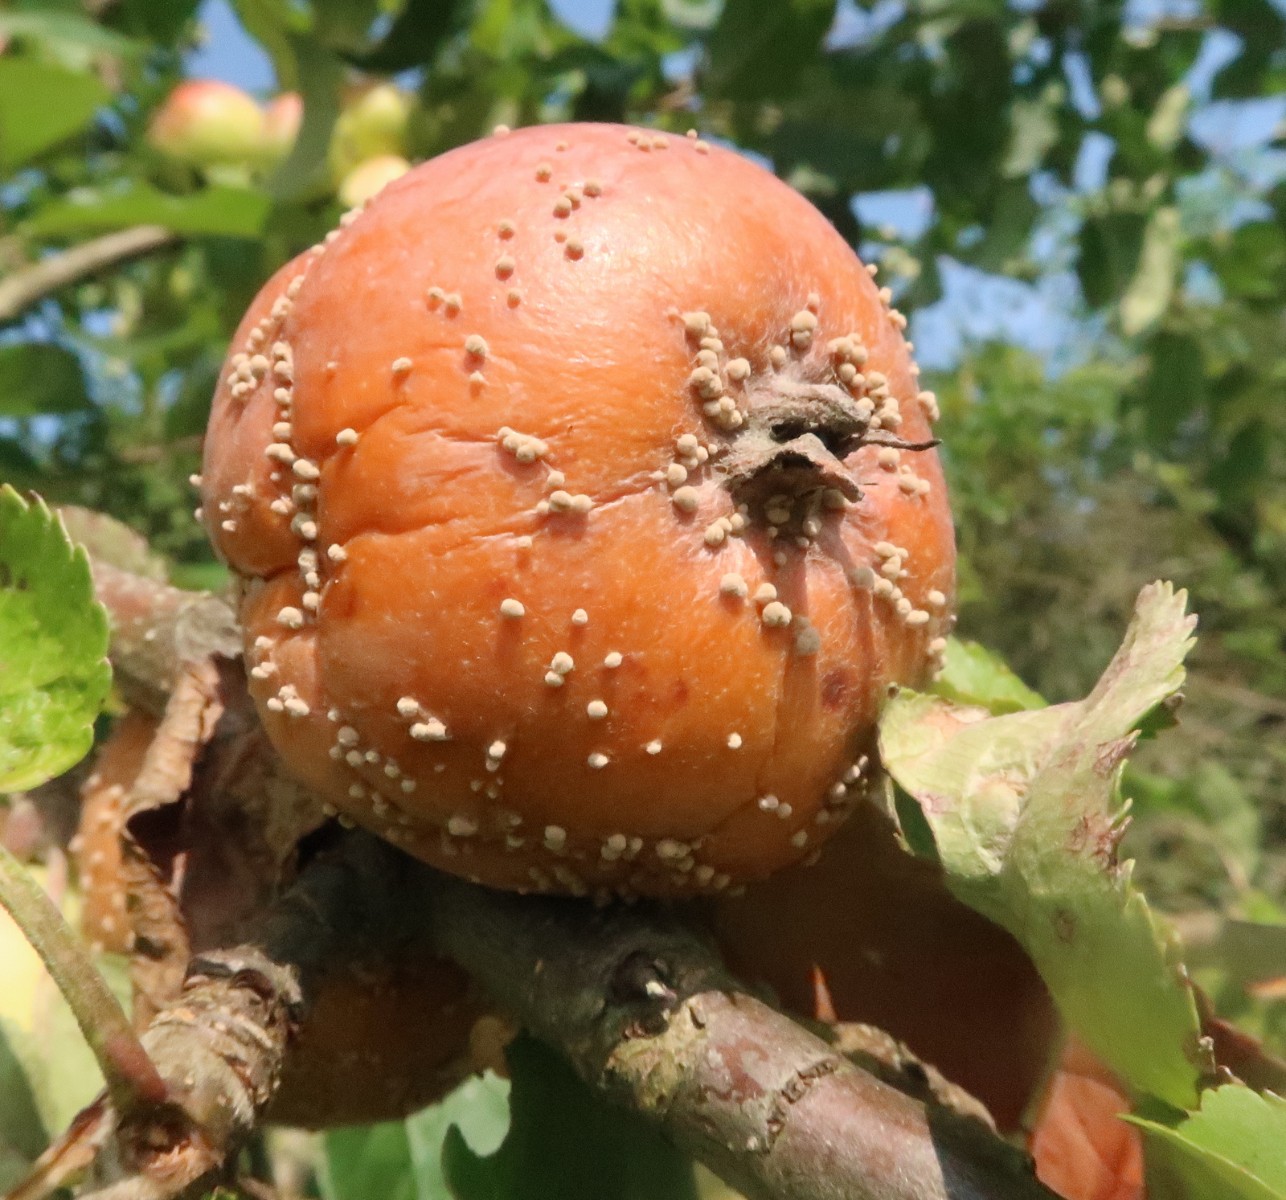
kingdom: Fungi
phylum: Ascomycota
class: Leotiomycetes
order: Helotiales
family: Sclerotiniaceae
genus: Monilinia
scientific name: Monilinia fructigena
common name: æble-knoldskive
